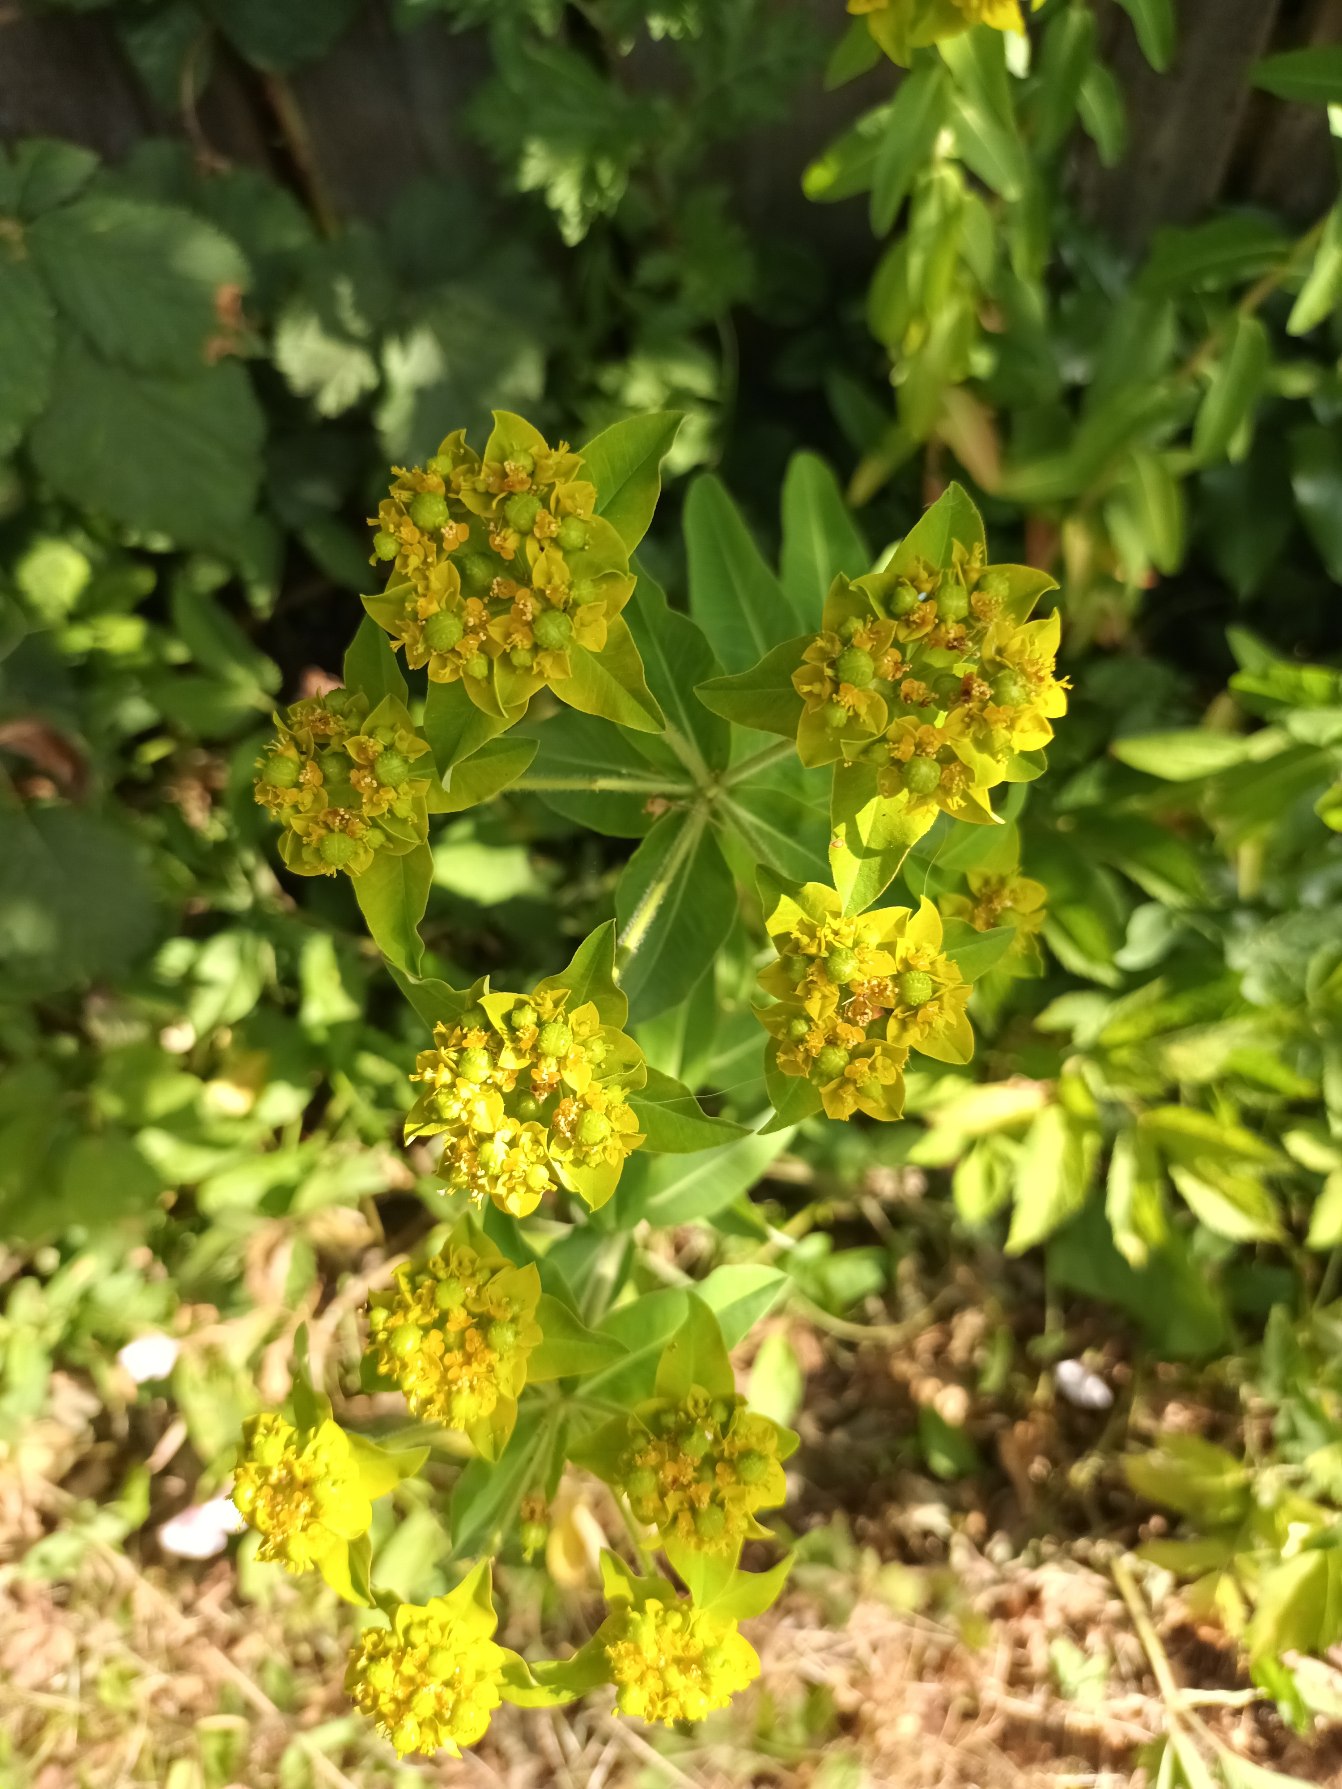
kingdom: Plantae
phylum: Tracheophyta
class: Magnoliopsida
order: Malpighiales
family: Euphorbiaceae
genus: Euphorbia
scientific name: Euphorbia oblongata
